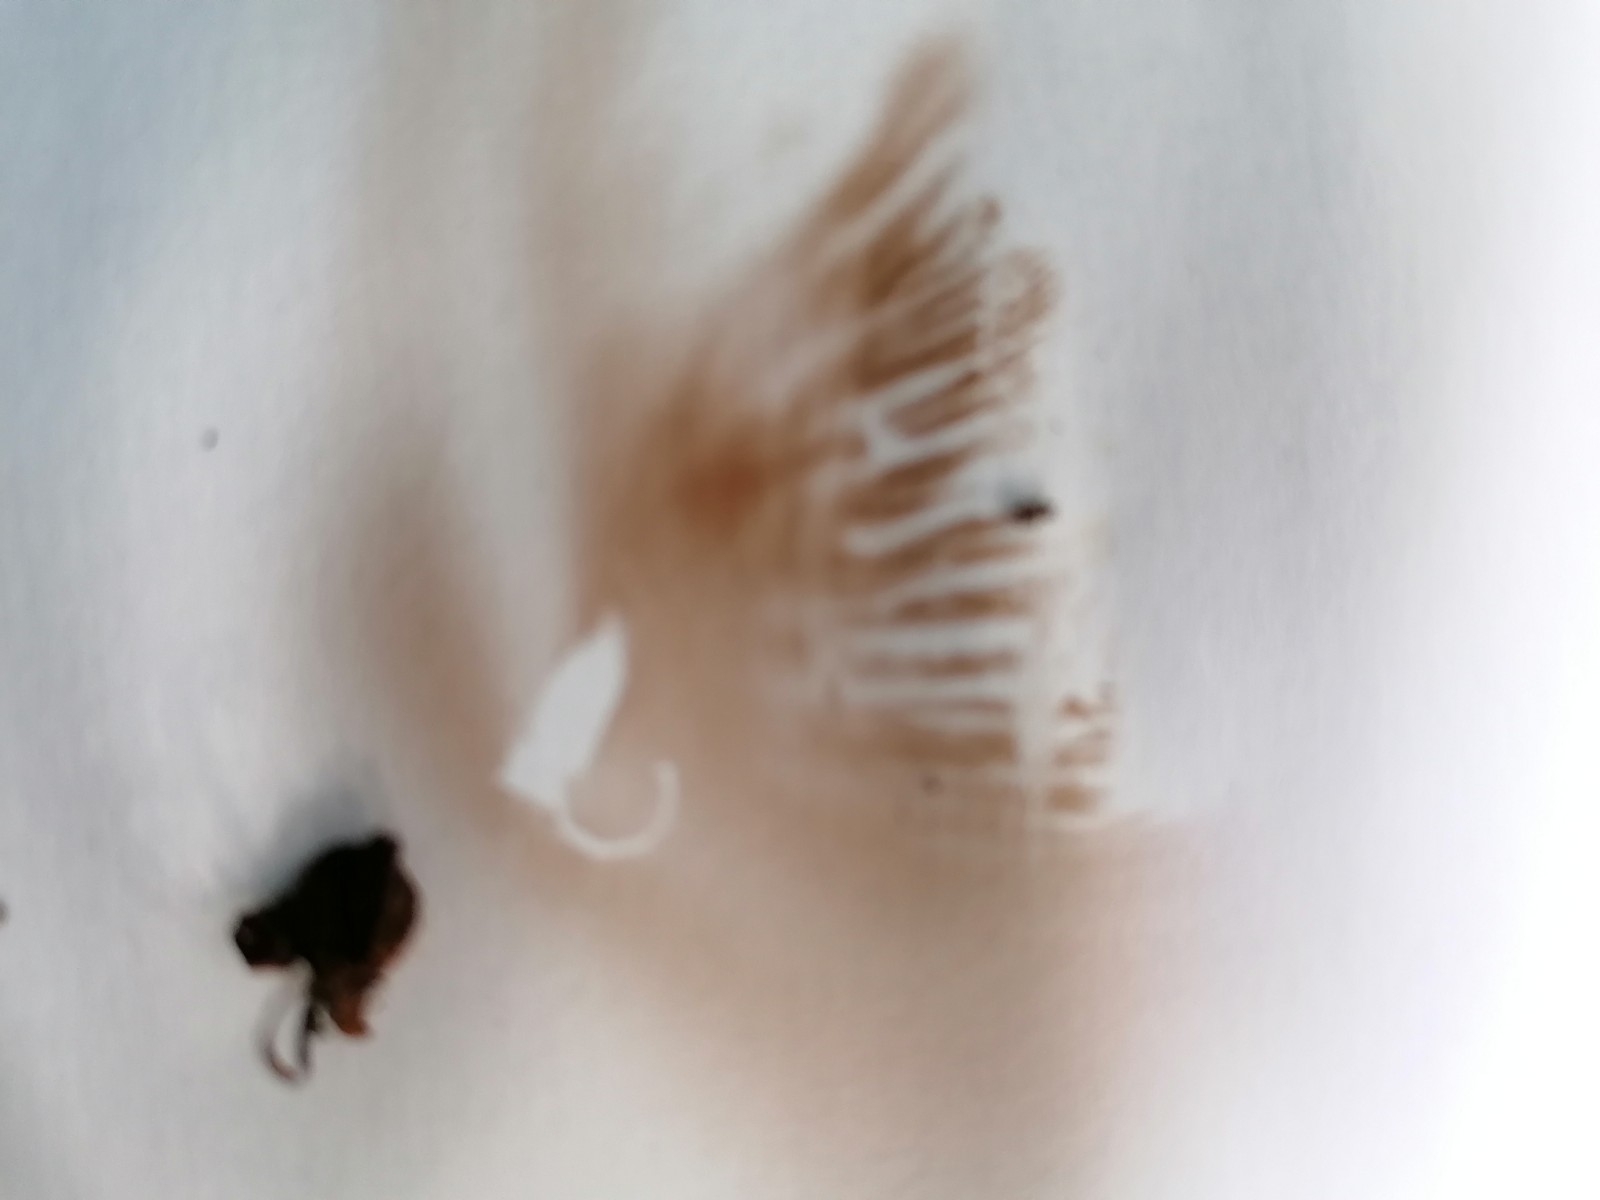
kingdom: Fungi
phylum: Basidiomycota
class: Agaricomycetes
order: Agaricales
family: Cortinariaceae
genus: Cortinarius
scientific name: Cortinarius hinnuleus
